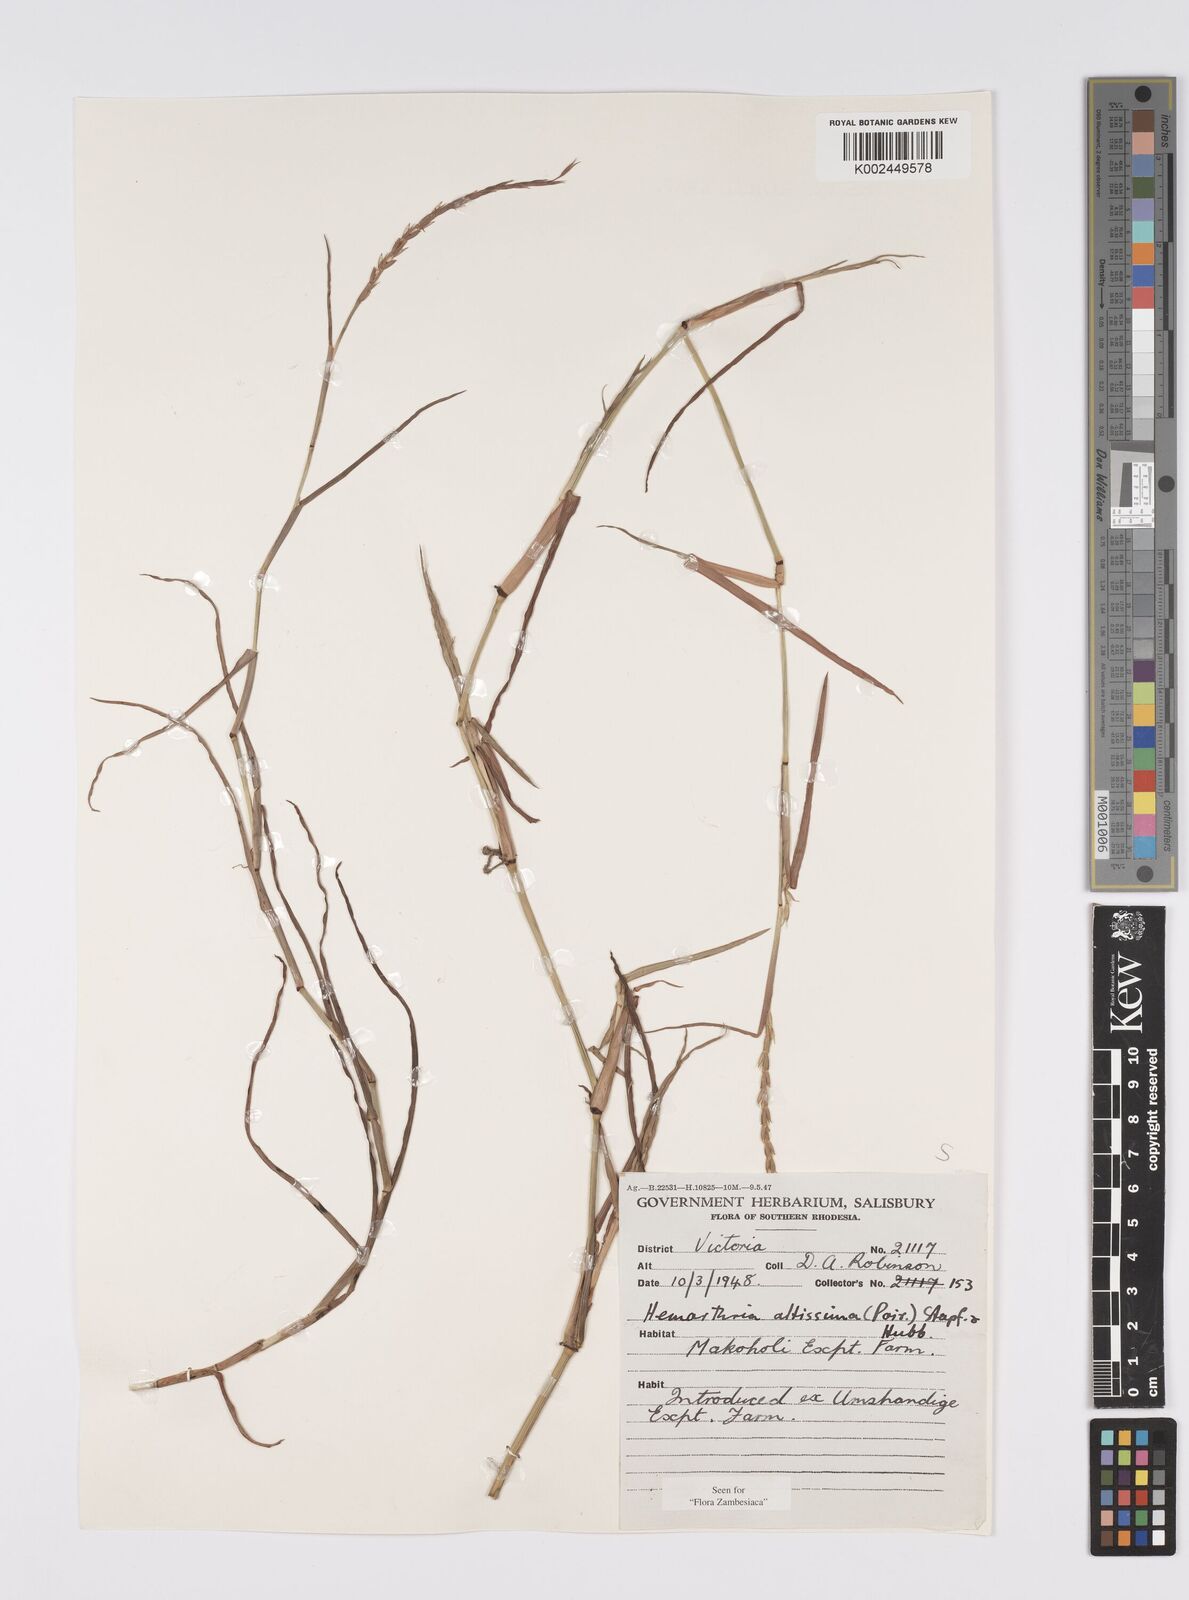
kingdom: Plantae
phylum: Tracheophyta
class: Liliopsida
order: Poales
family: Poaceae
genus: Hemarthria
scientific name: Hemarthria altissima
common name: African jointgrass
